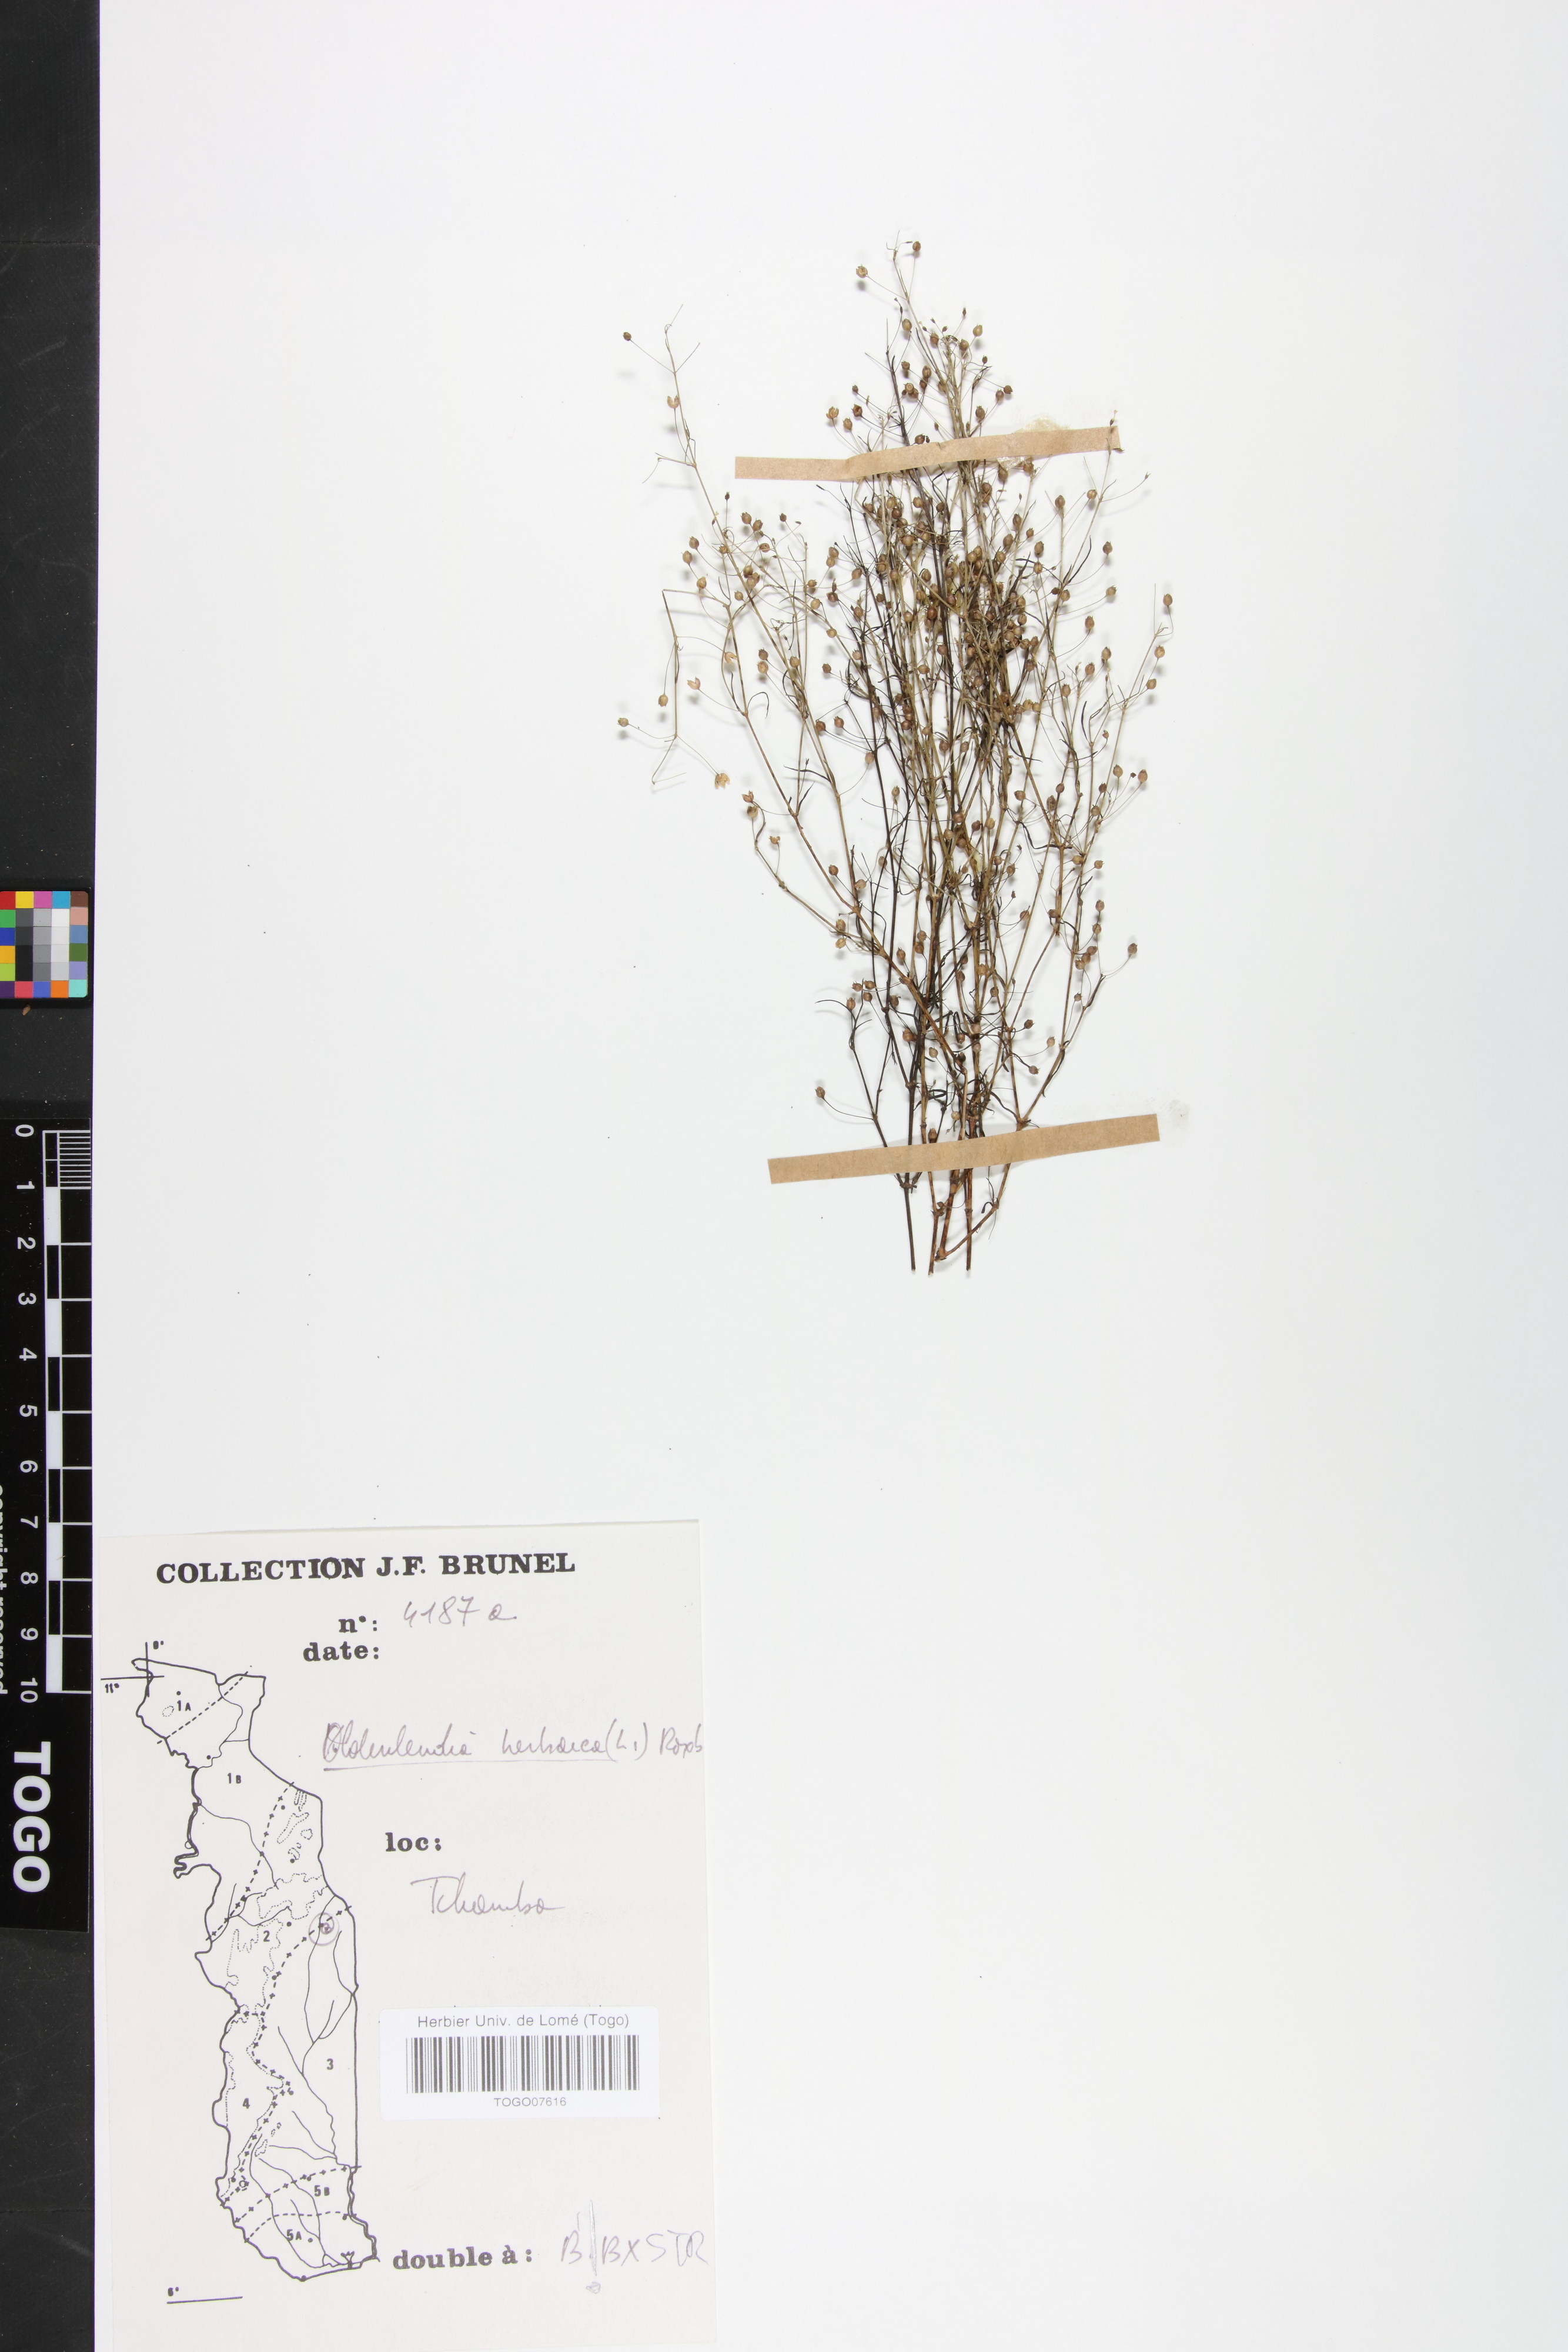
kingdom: Plantae
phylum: Tracheophyta
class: Magnoliopsida
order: Gentianales
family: Rubiaceae
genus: Oldenlandia
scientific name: Oldenlandia herbacea
